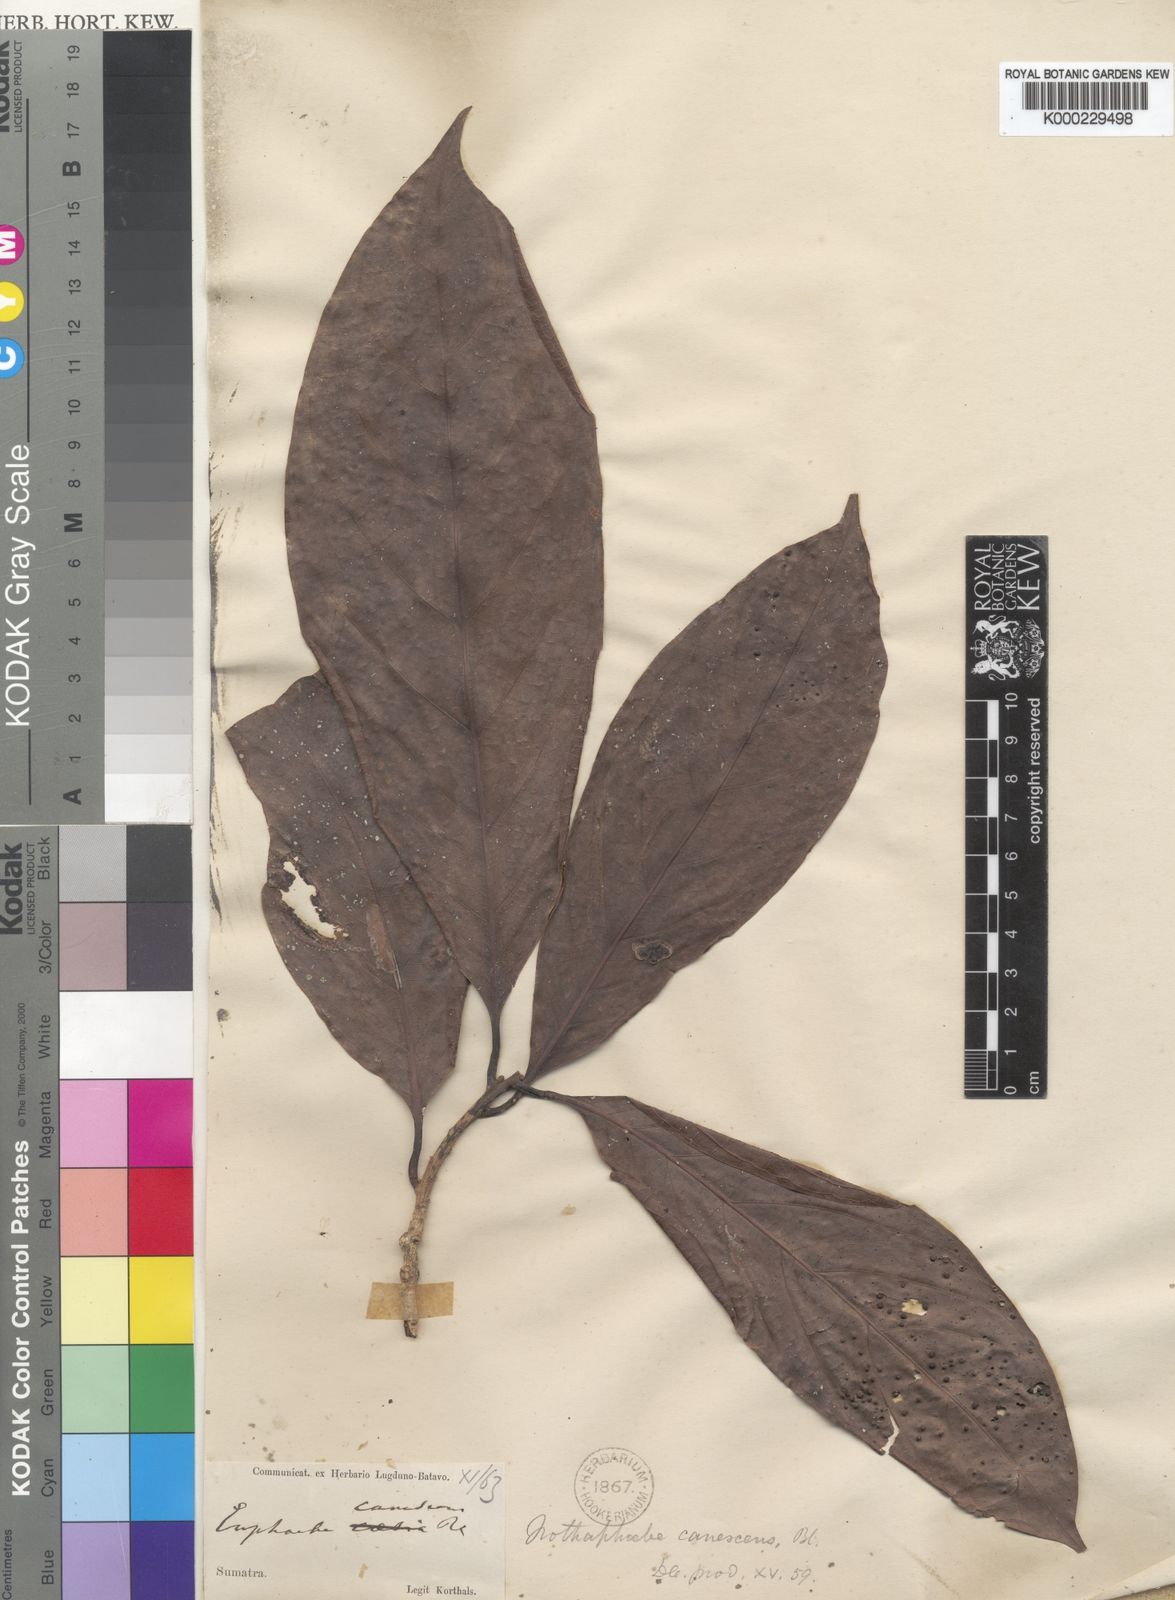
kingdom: Plantae
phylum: Tracheophyta
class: Magnoliopsida
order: Laurales
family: Lauraceae
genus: Phoebe
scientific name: Phoebe canescens
